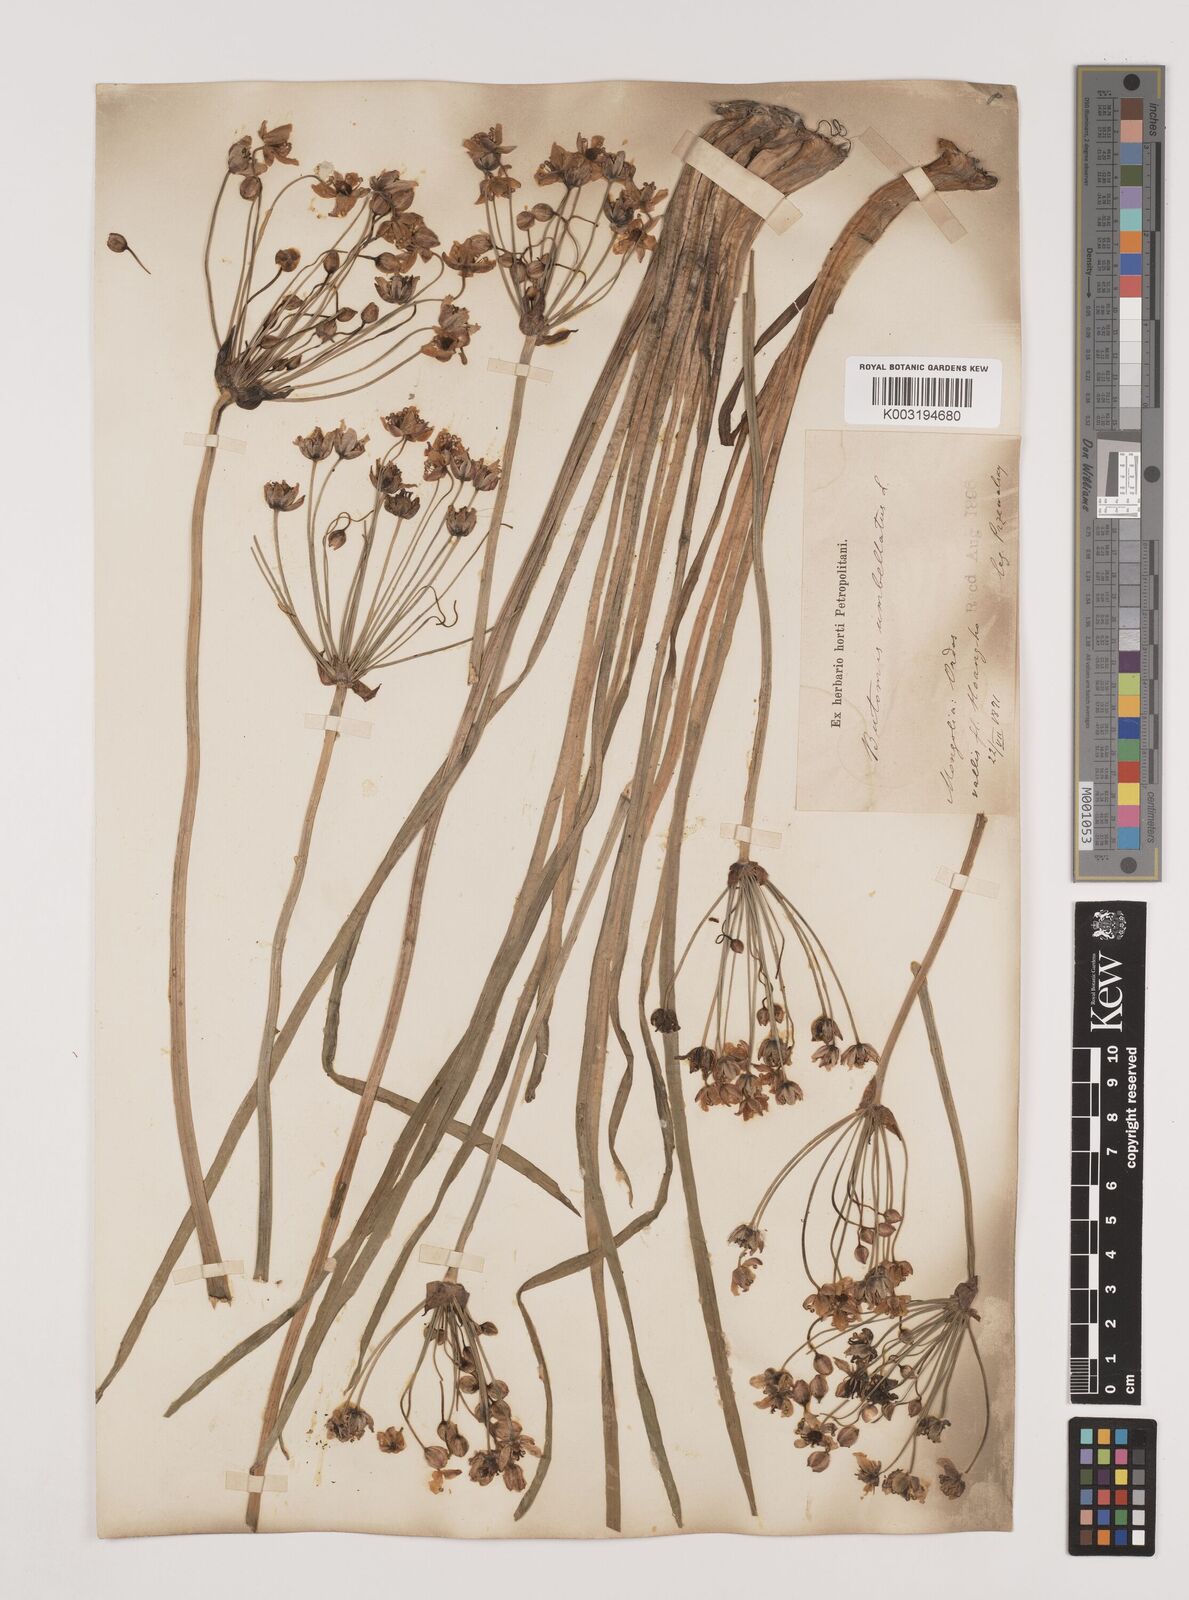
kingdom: Plantae
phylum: Tracheophyta
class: Liliopsida
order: Alismatales
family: Butomaceae
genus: Butomus
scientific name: Butomus umbellatus
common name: Flowering-rush
